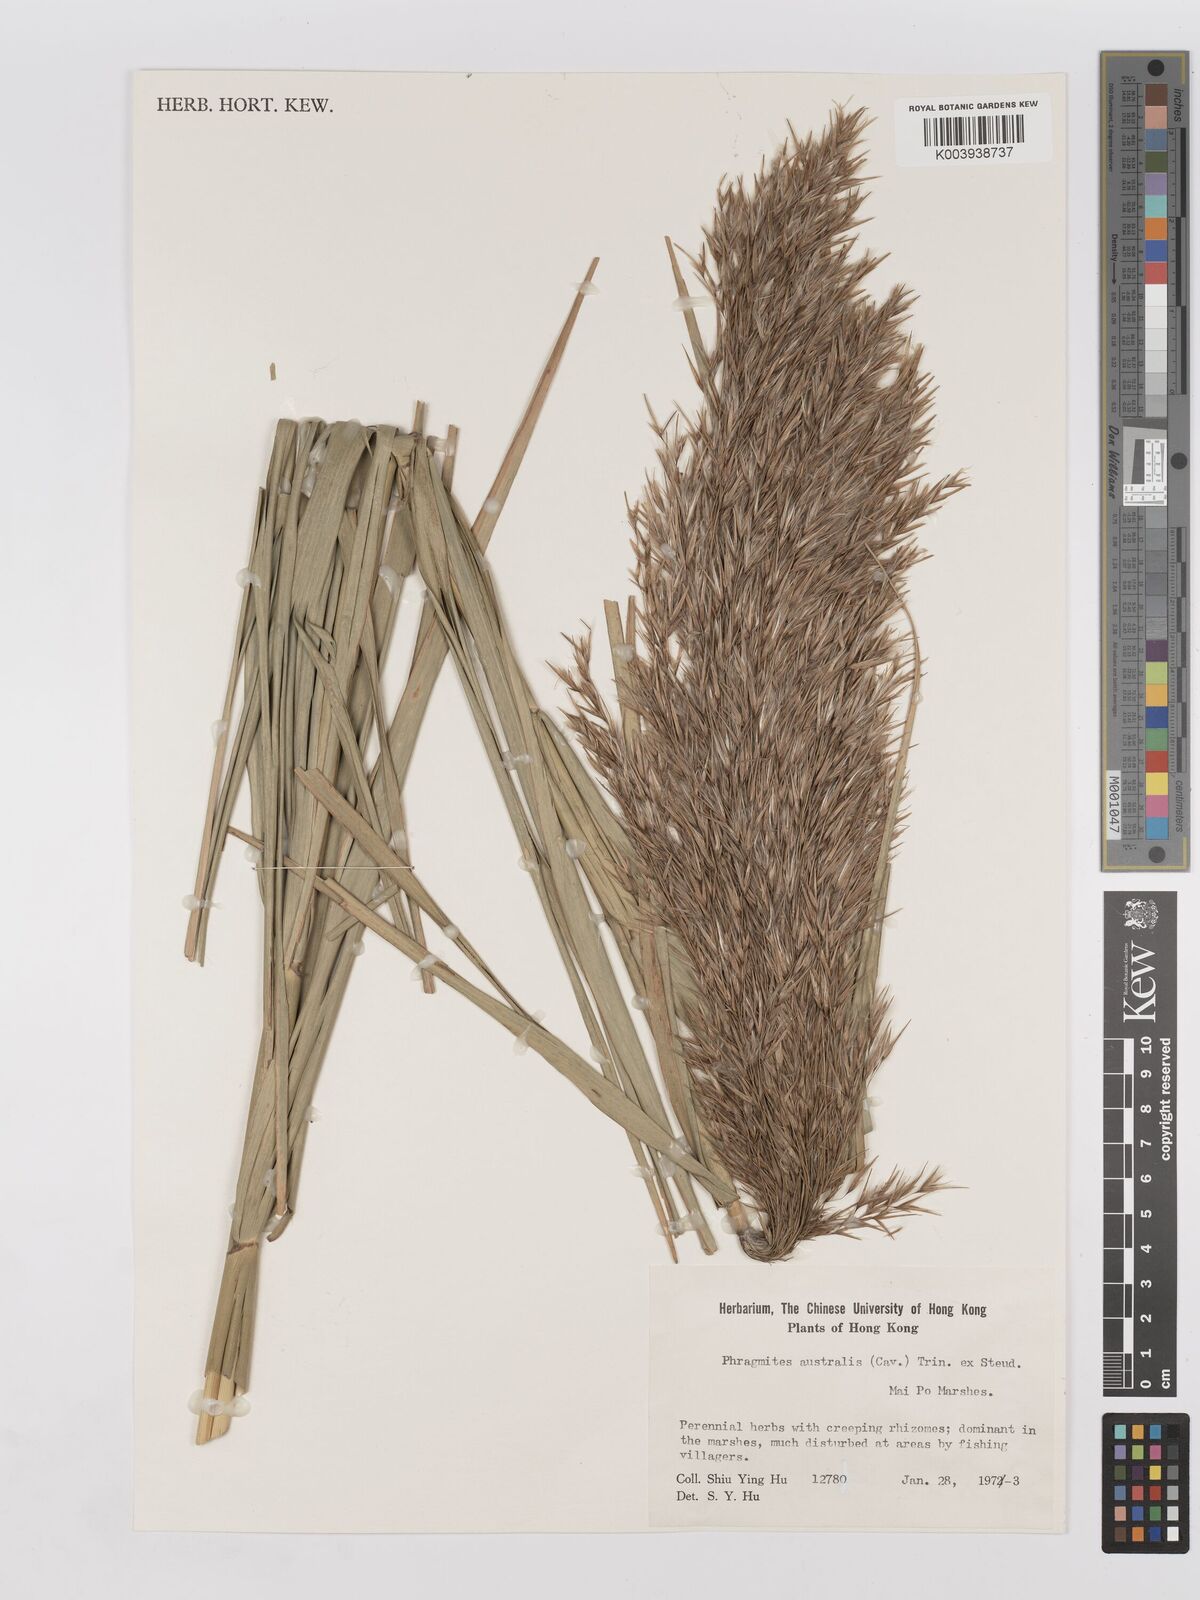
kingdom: Plantae
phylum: Tracheophyta
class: Liliopsida
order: Poales
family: Poaceae
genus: Phragmites
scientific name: Phragmites australis
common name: Common reed
